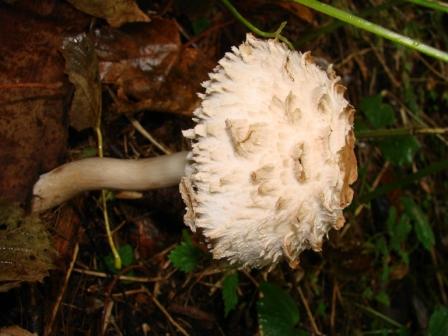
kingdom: Fungi
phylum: Basidiomycota
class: Agaricomycetes
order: Agaricales
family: Agaricaceae
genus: Chlorophyllum
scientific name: Chlorophyllum olivieri
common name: almindelig rabarberhat
